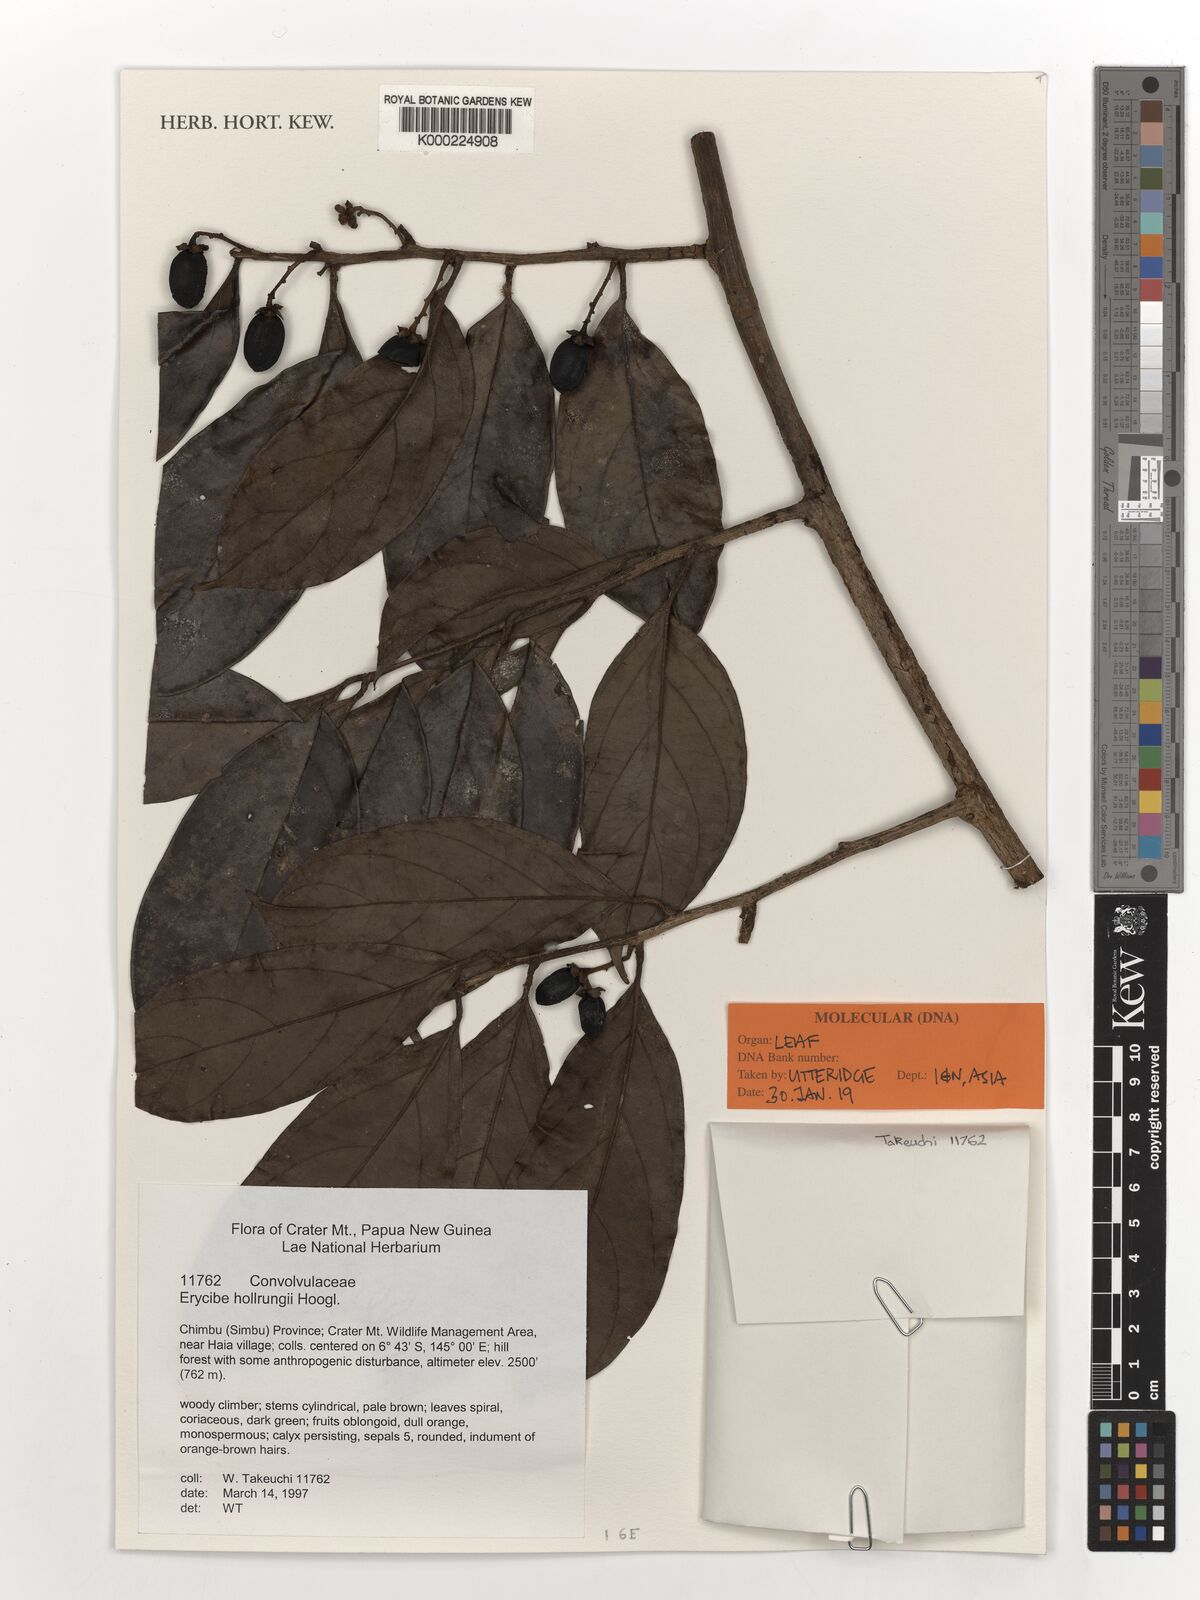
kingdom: Plantae
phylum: Tracheophyta
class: Magnoliopsida
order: Solanales
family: Convolvulaceae
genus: Erycibe
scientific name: Erycibe hollrungii
